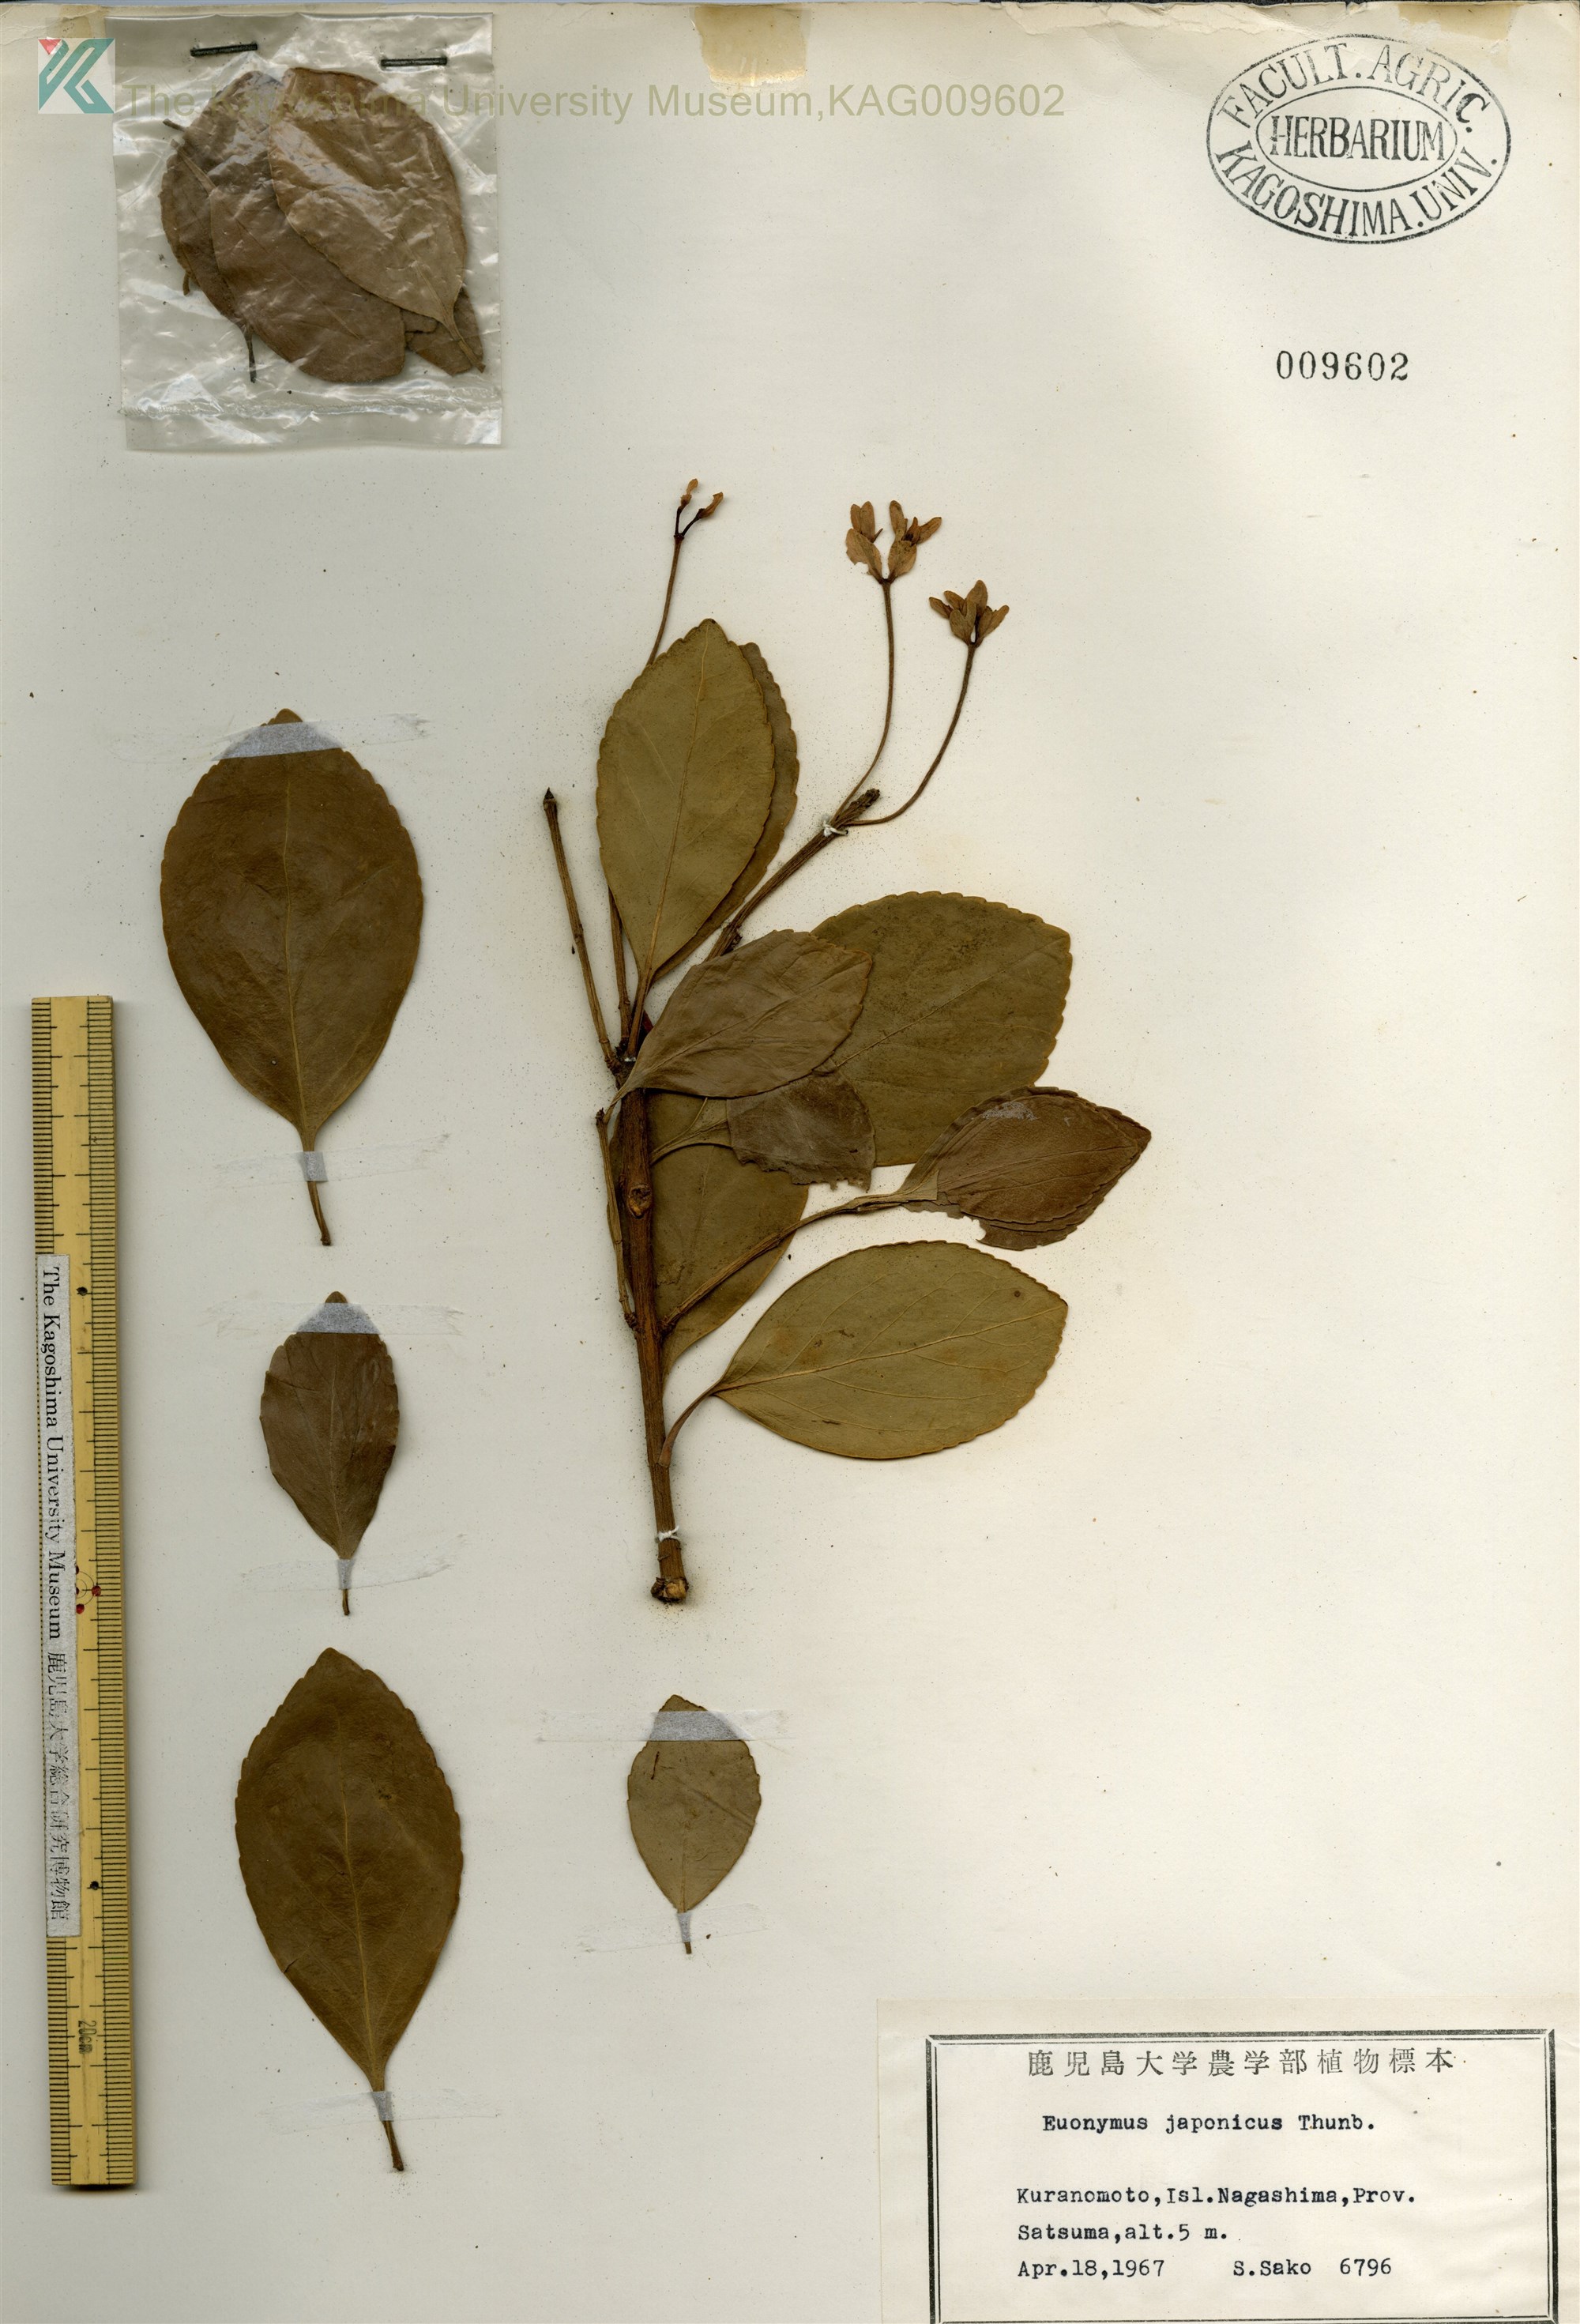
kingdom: Plantae
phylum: Tracheophyta
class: Magnoliopsida
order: Celastrales
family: Celastraceae
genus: Euonymus
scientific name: Euonymus japonicus
